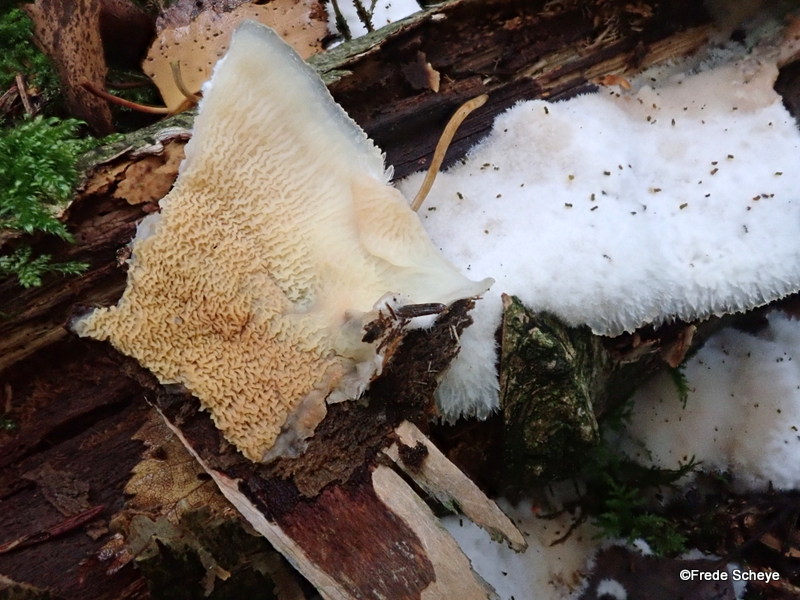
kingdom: Fungi
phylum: Basidiomycota
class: Agaricomycetes
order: Polyporales
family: Meruliaceae
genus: Phlebia
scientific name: Phlebia tremellosa
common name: bævrende åresvamp
